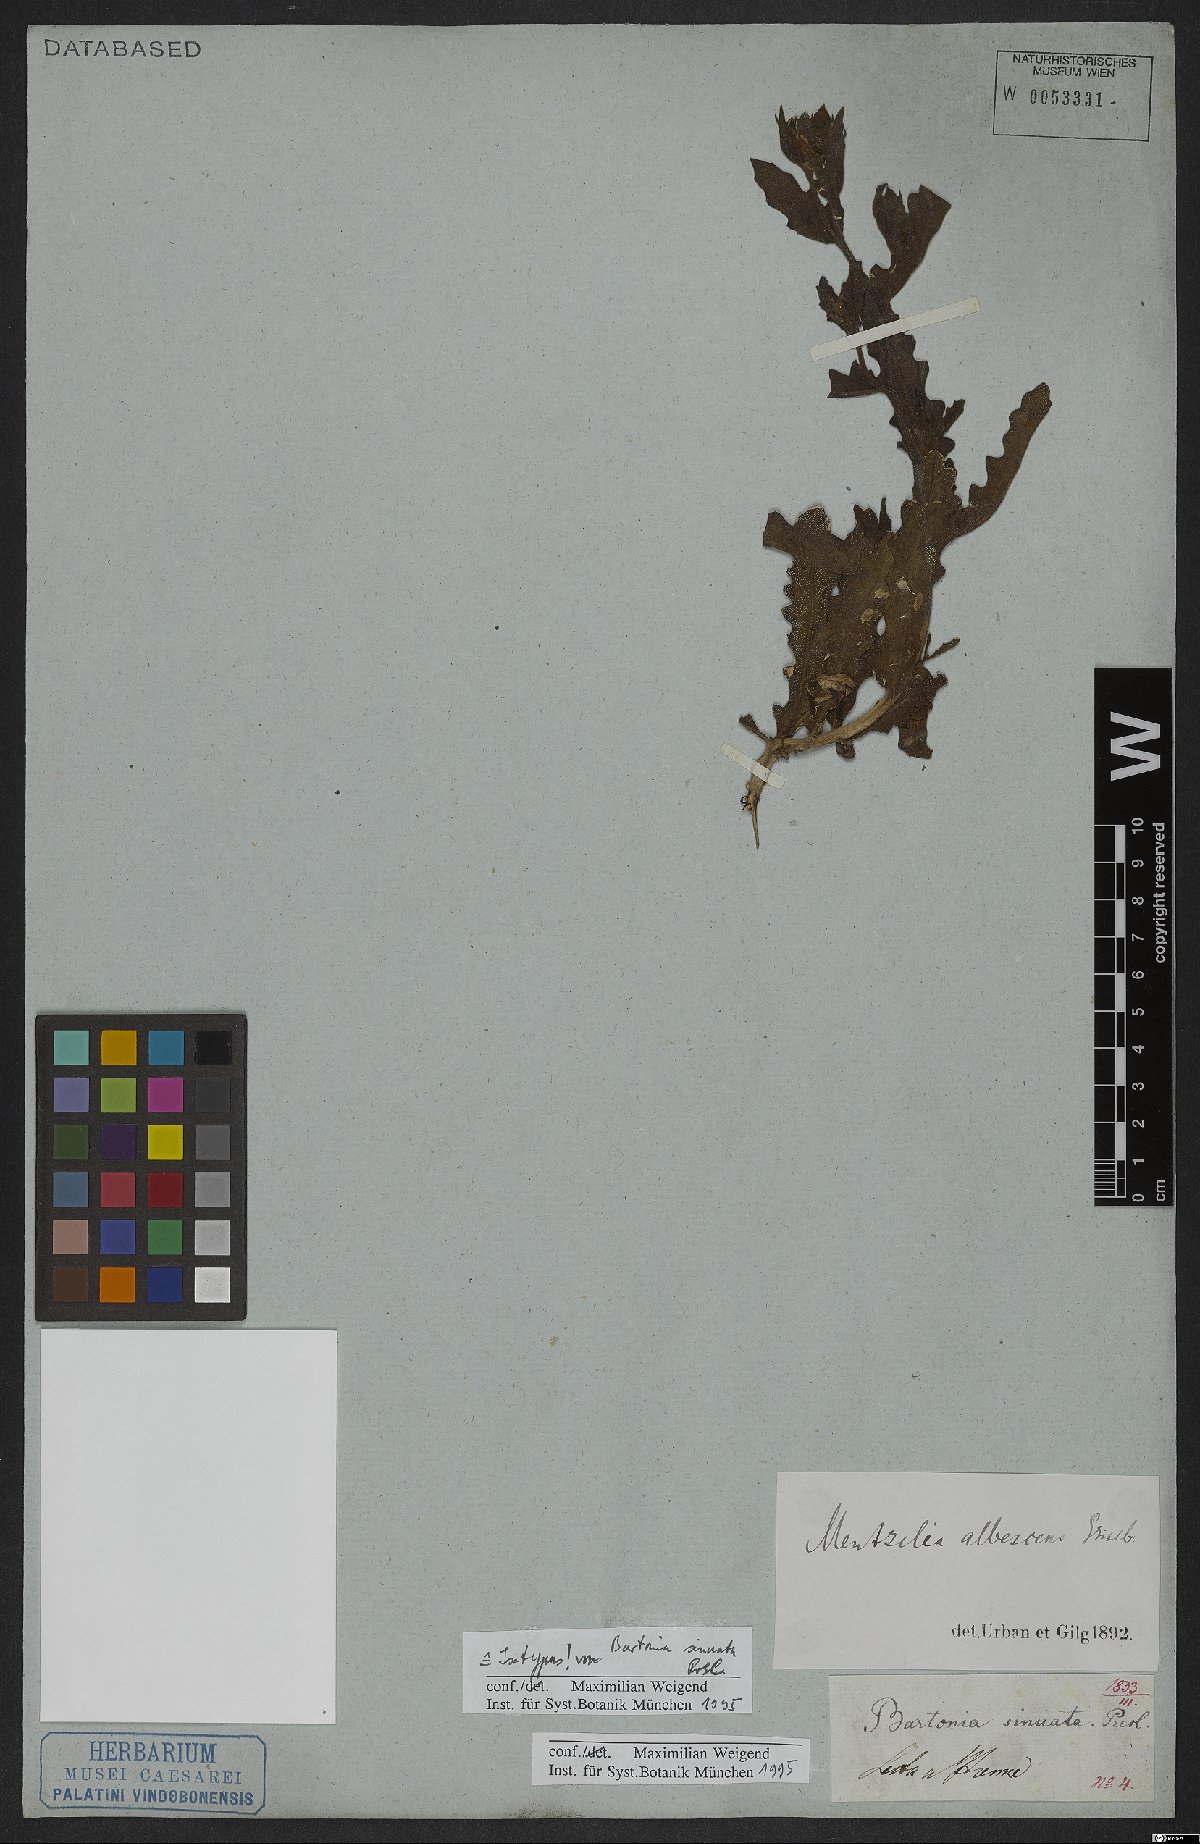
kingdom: Plantae
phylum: Tracheophyta
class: Magnoliopsida
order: Cornales
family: Loasaceae
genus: Mentzelia
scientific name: Mentzelia albescens
